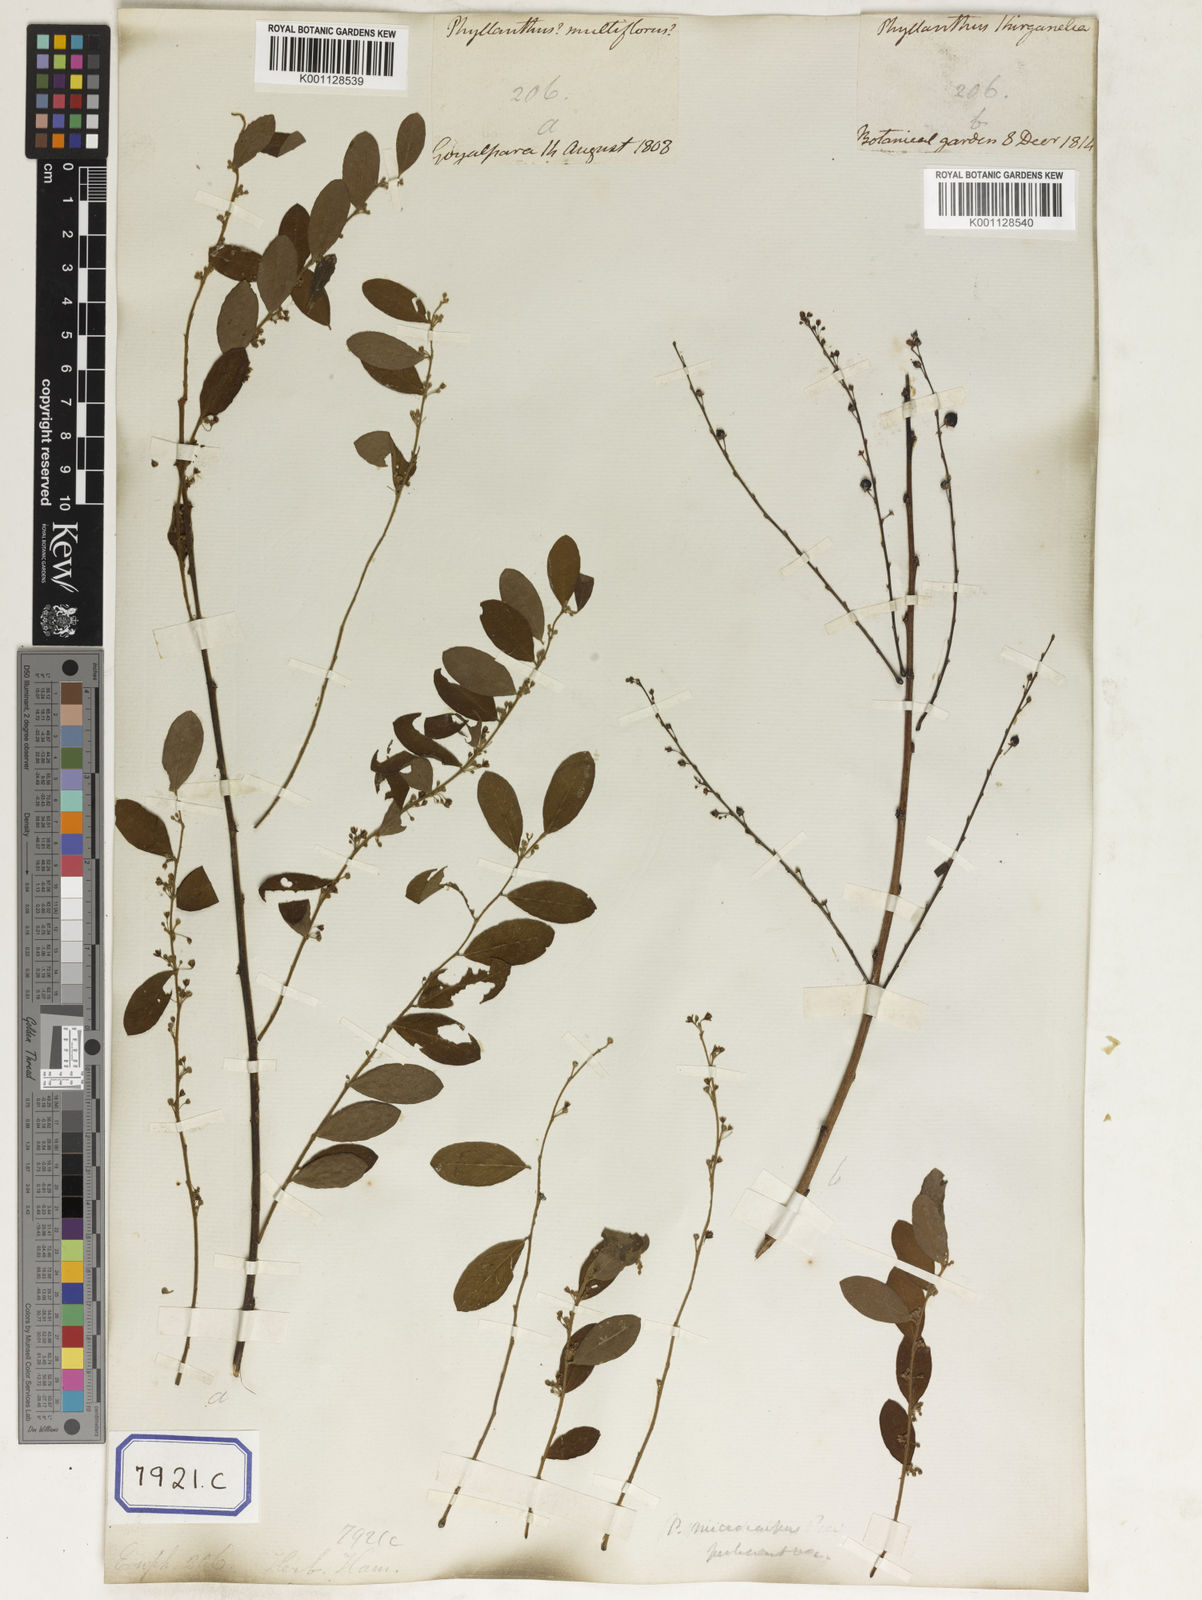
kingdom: Plantae
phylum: Tracheophyta
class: Magnoliopsida
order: Malpighiales
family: Euphorbiaceae
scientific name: Euphorbiaceae
